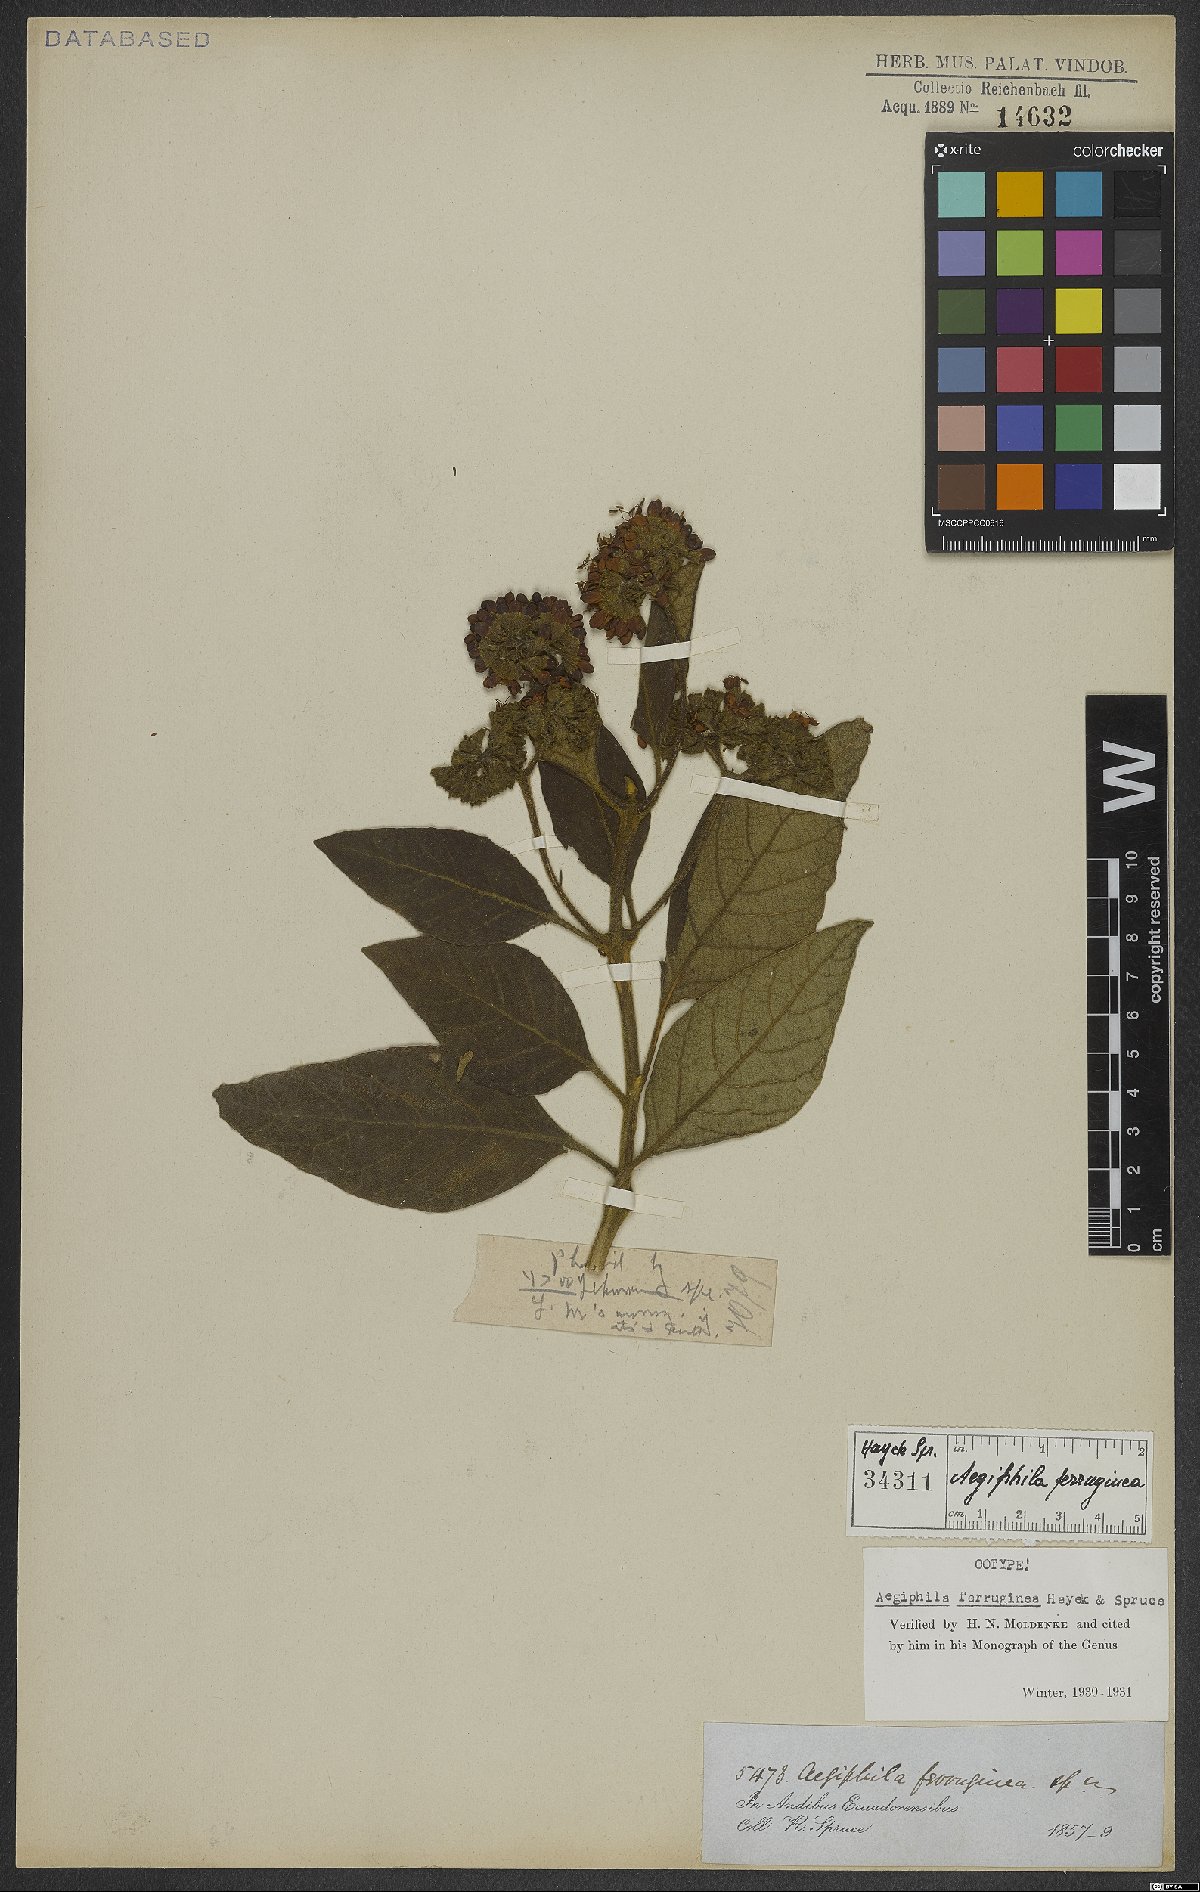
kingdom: Plantae
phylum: Tracheophyta
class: Magnoliopsida
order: Lamiales
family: Lamiaceae
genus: Aegiphila
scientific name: Aegiphila ferruginea
